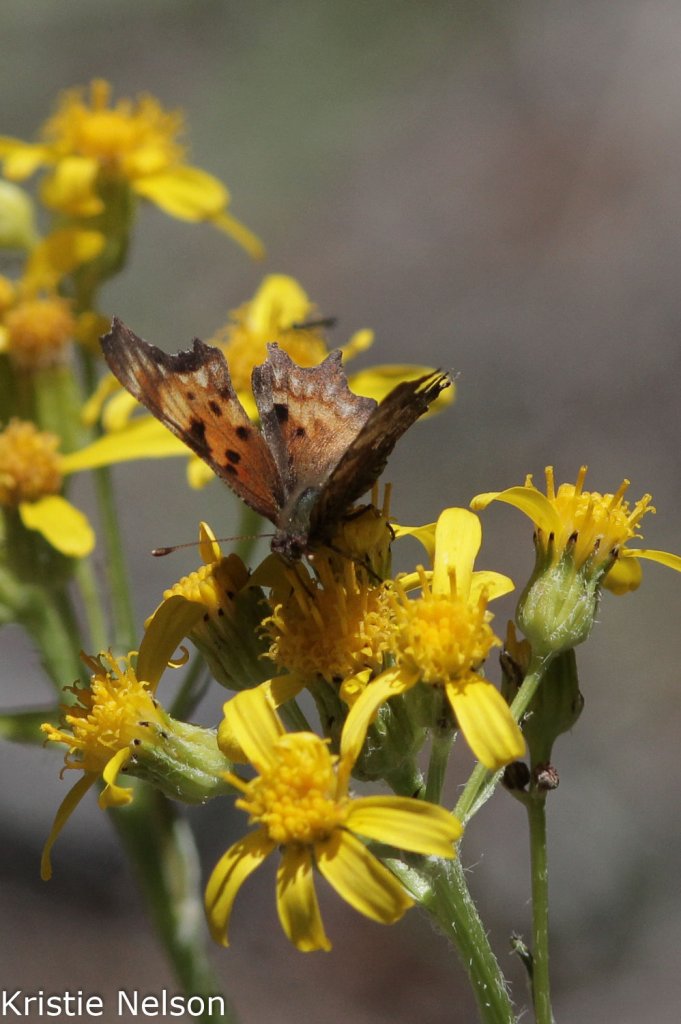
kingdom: Animalia
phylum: Arthropoda
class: Insecta
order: Lepidoptera
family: Nymphalidae
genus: Polygonia
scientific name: Polygonia gracilis
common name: Hoary Comma
